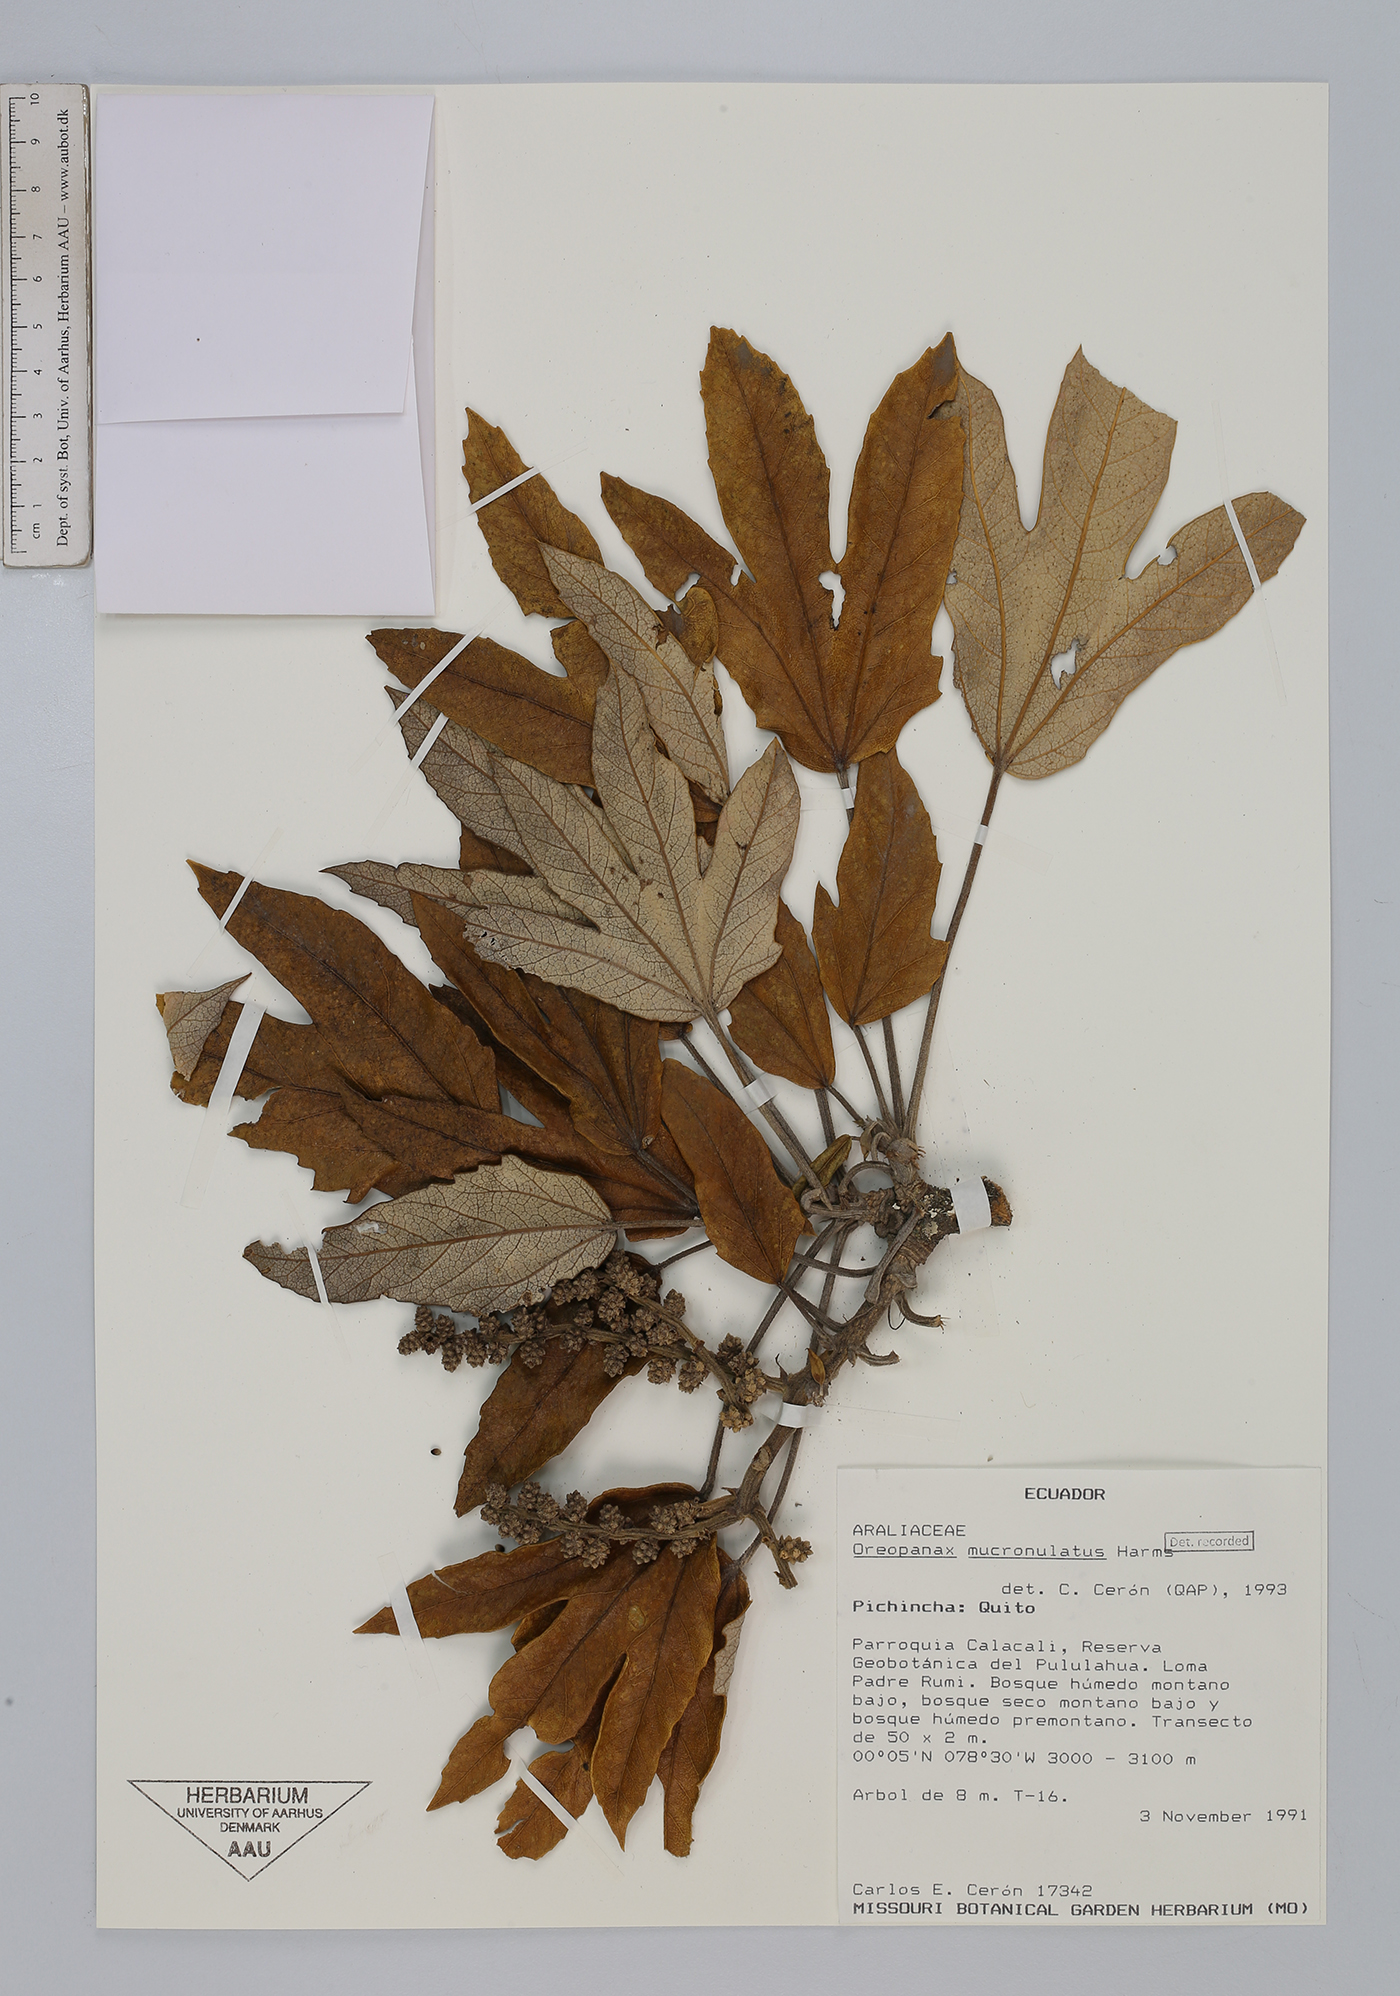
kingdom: Plantae
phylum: Tracheophyta
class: Magnoliopsida
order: Apiales
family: Araliaceae
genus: Oreopanax
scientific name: Oreopanax ecuadoriensis
